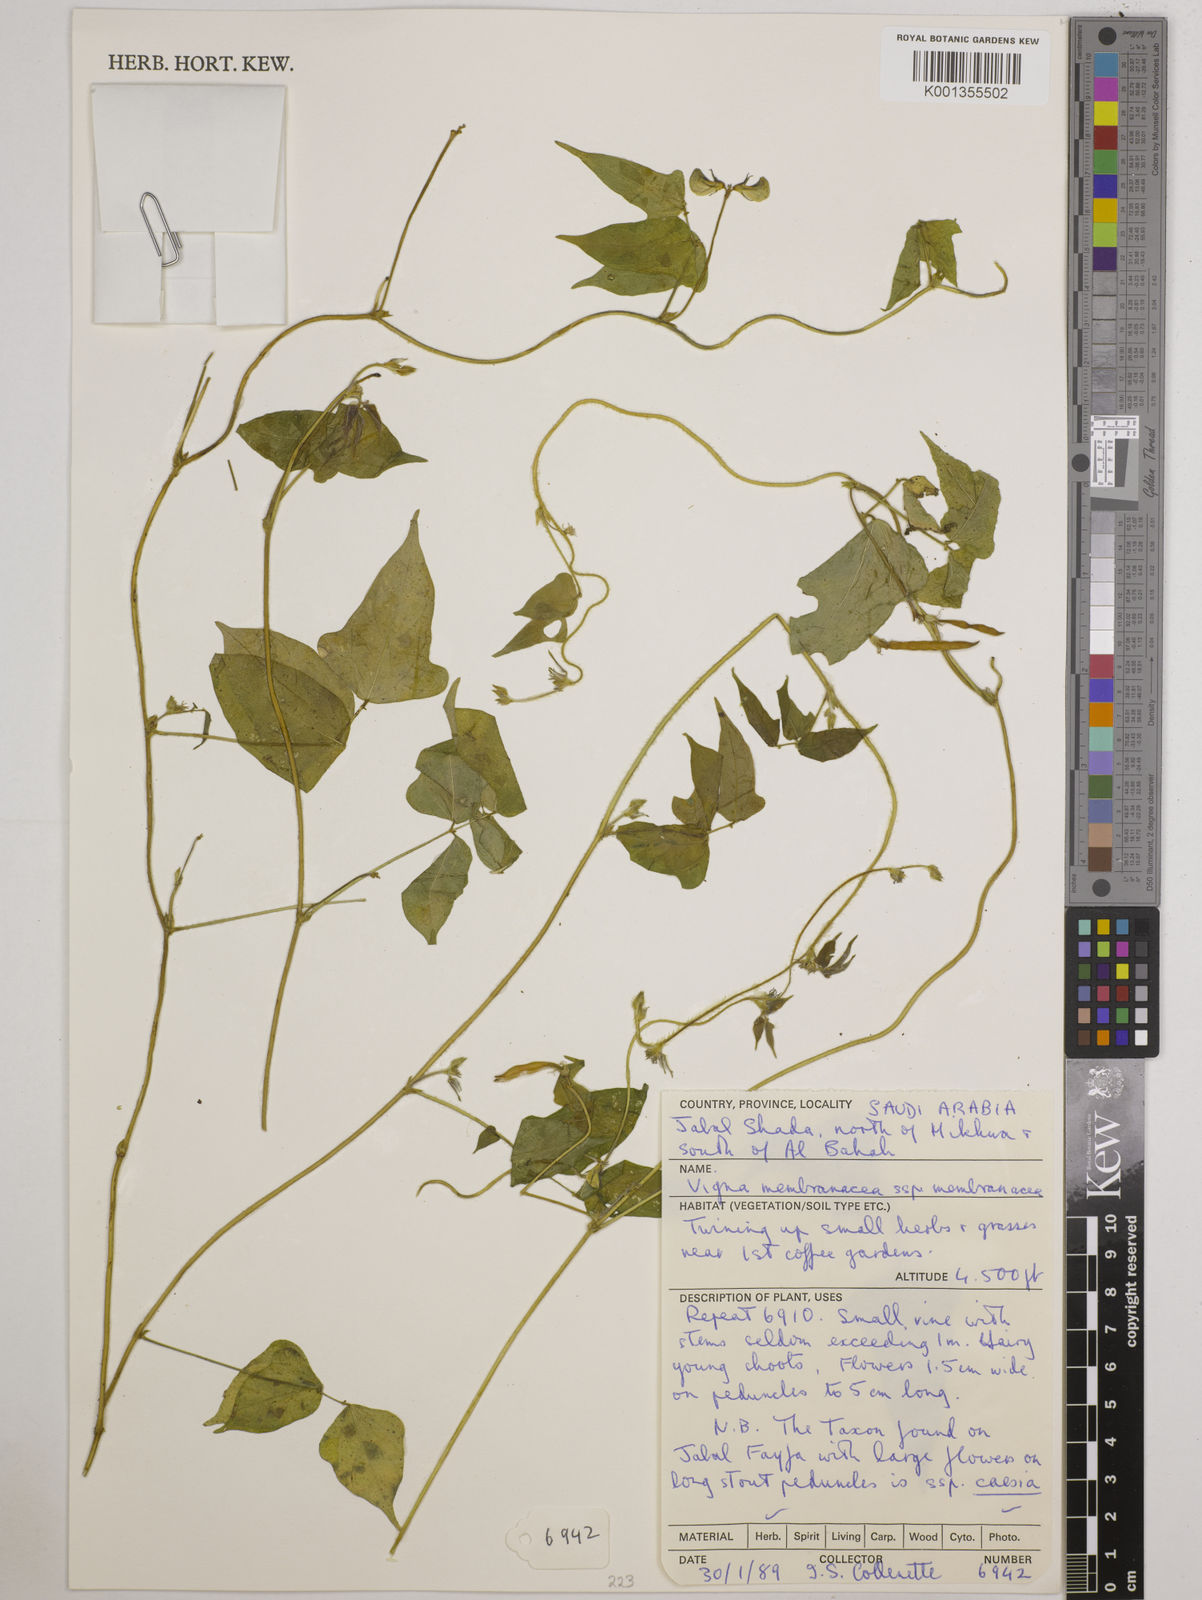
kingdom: Plantae
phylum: Tracheophyta
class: Magnoliopsida
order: Fabales
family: Fabaceae
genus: Vigna
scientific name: Vigna membranacea
